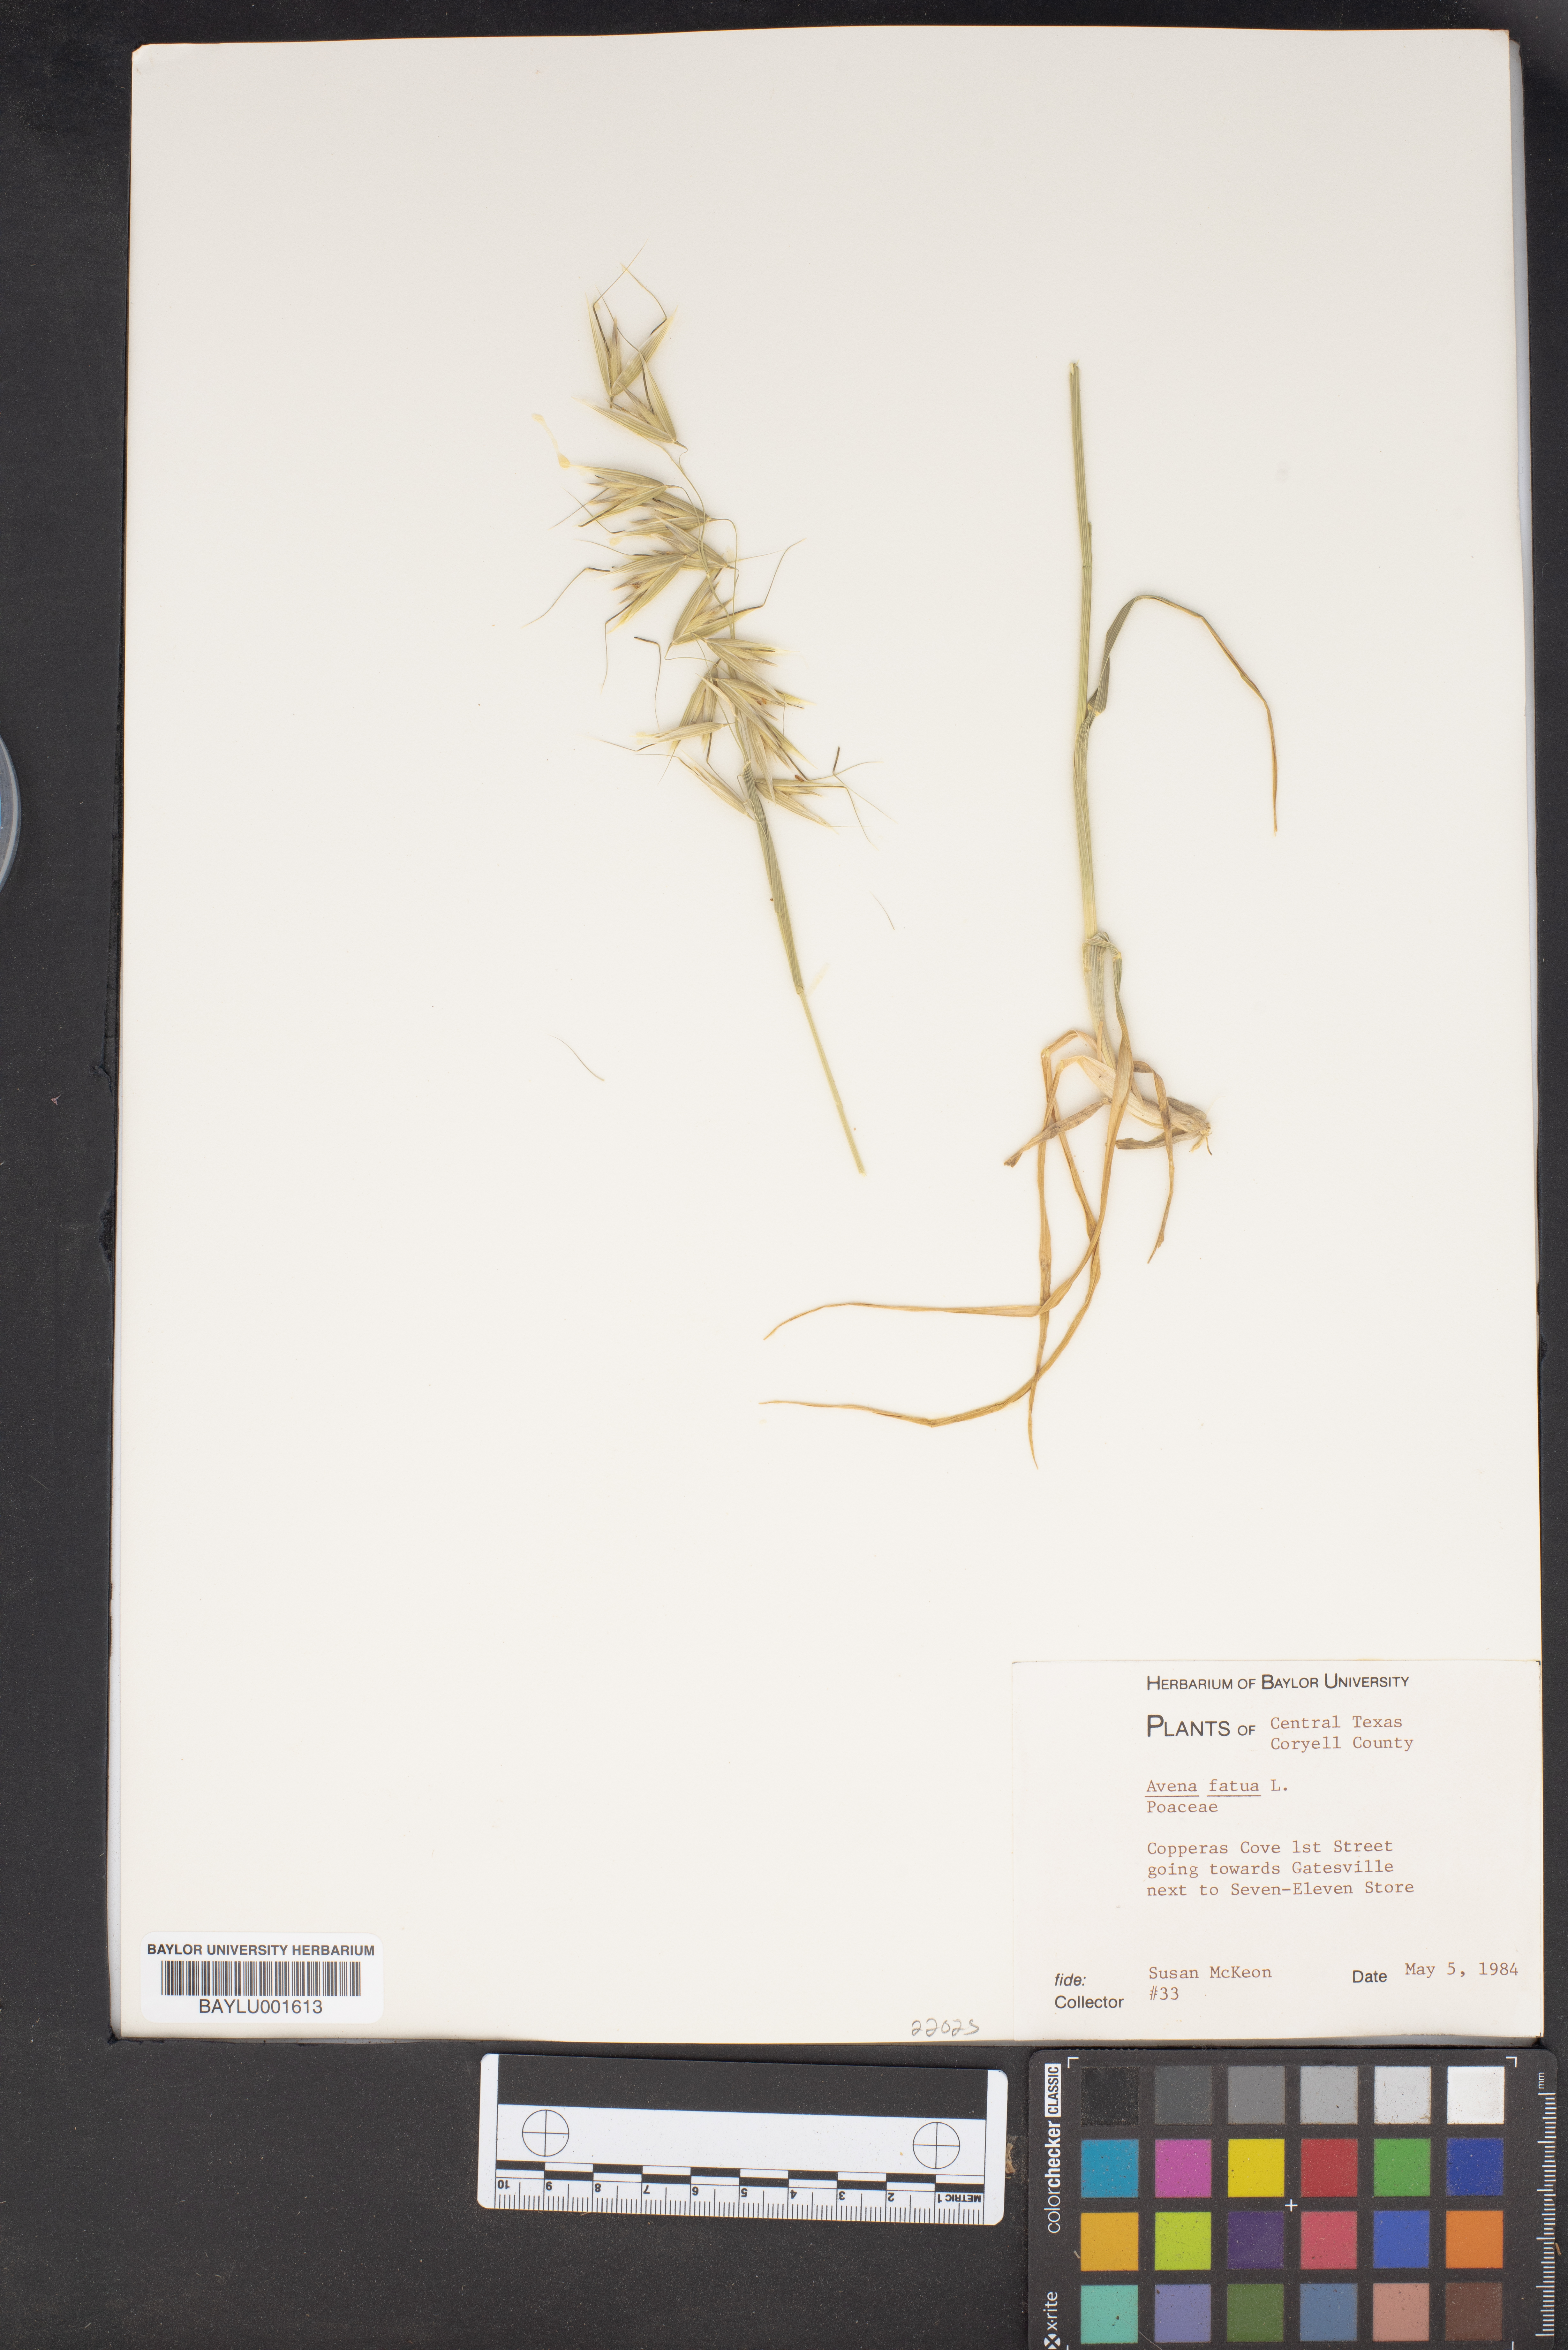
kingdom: Plantae
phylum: Tracheophyta
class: Liliopsida
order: Poales
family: Poaceae
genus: Avena
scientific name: Avena fatua
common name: Wild oat
